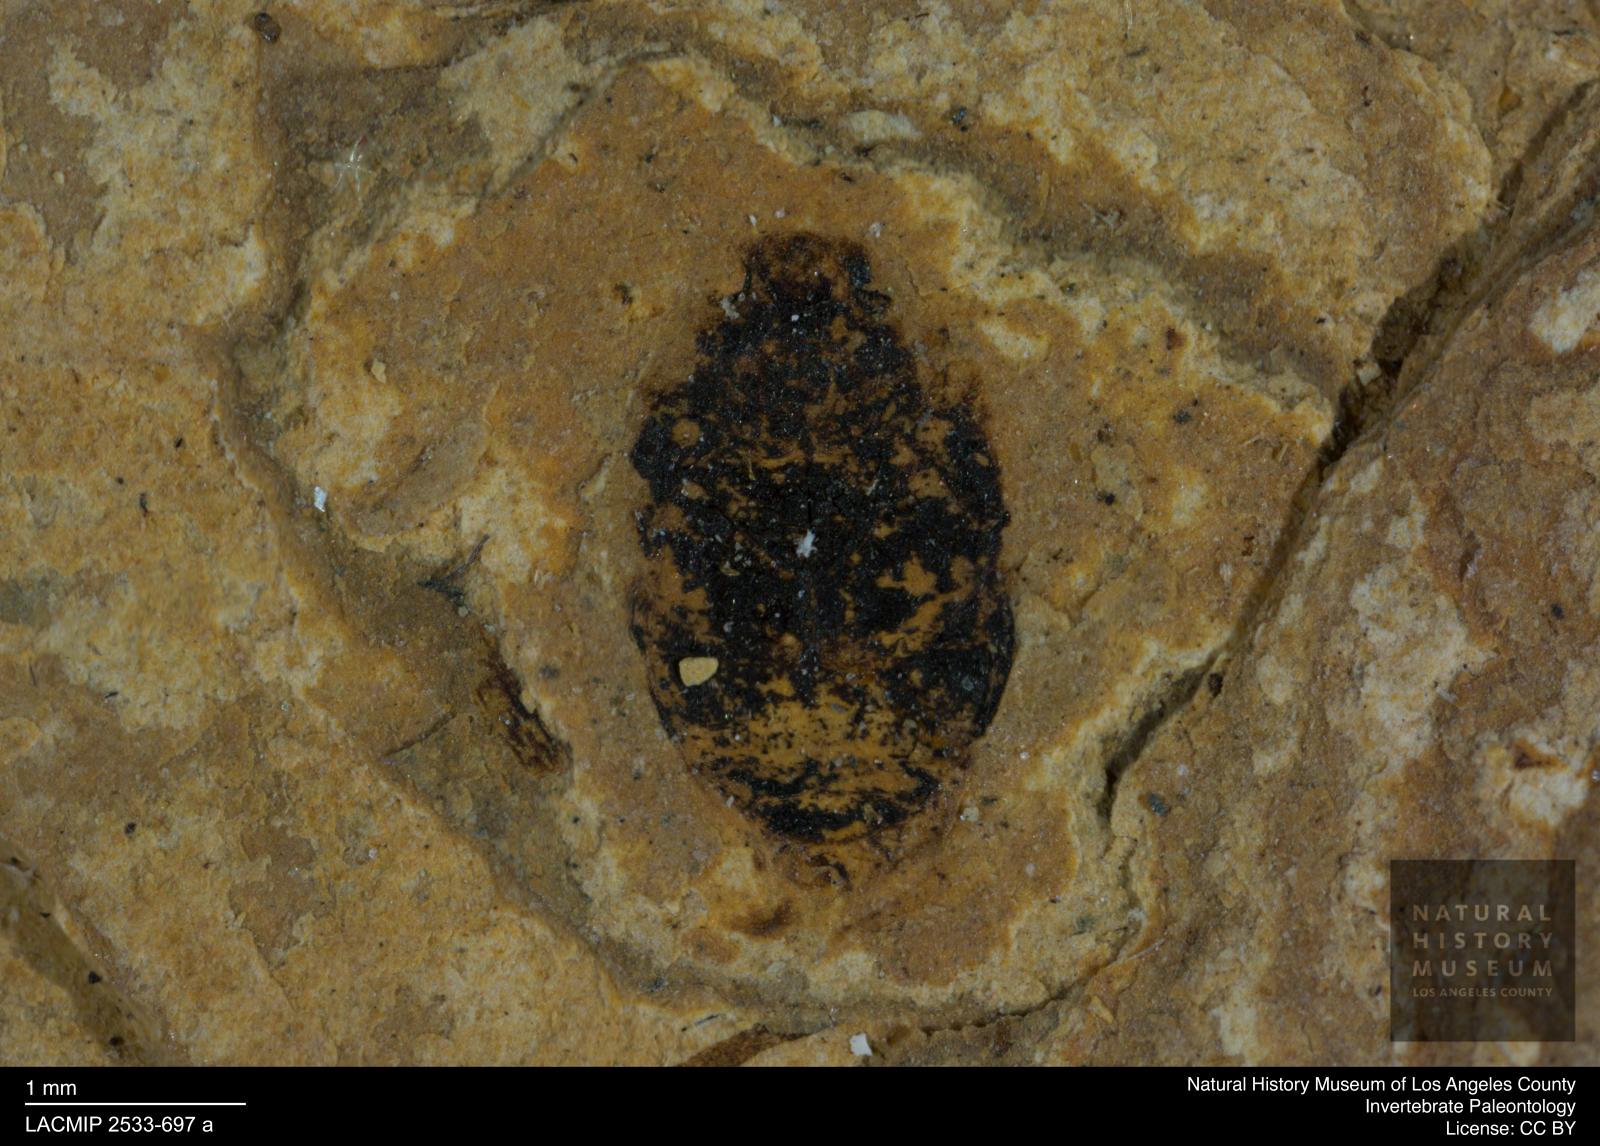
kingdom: Animalia
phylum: Arthropoda
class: Insecta
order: Coleoptera
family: Dytiscidae
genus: Oreodytes
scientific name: Oreodytes cryptolineatus
